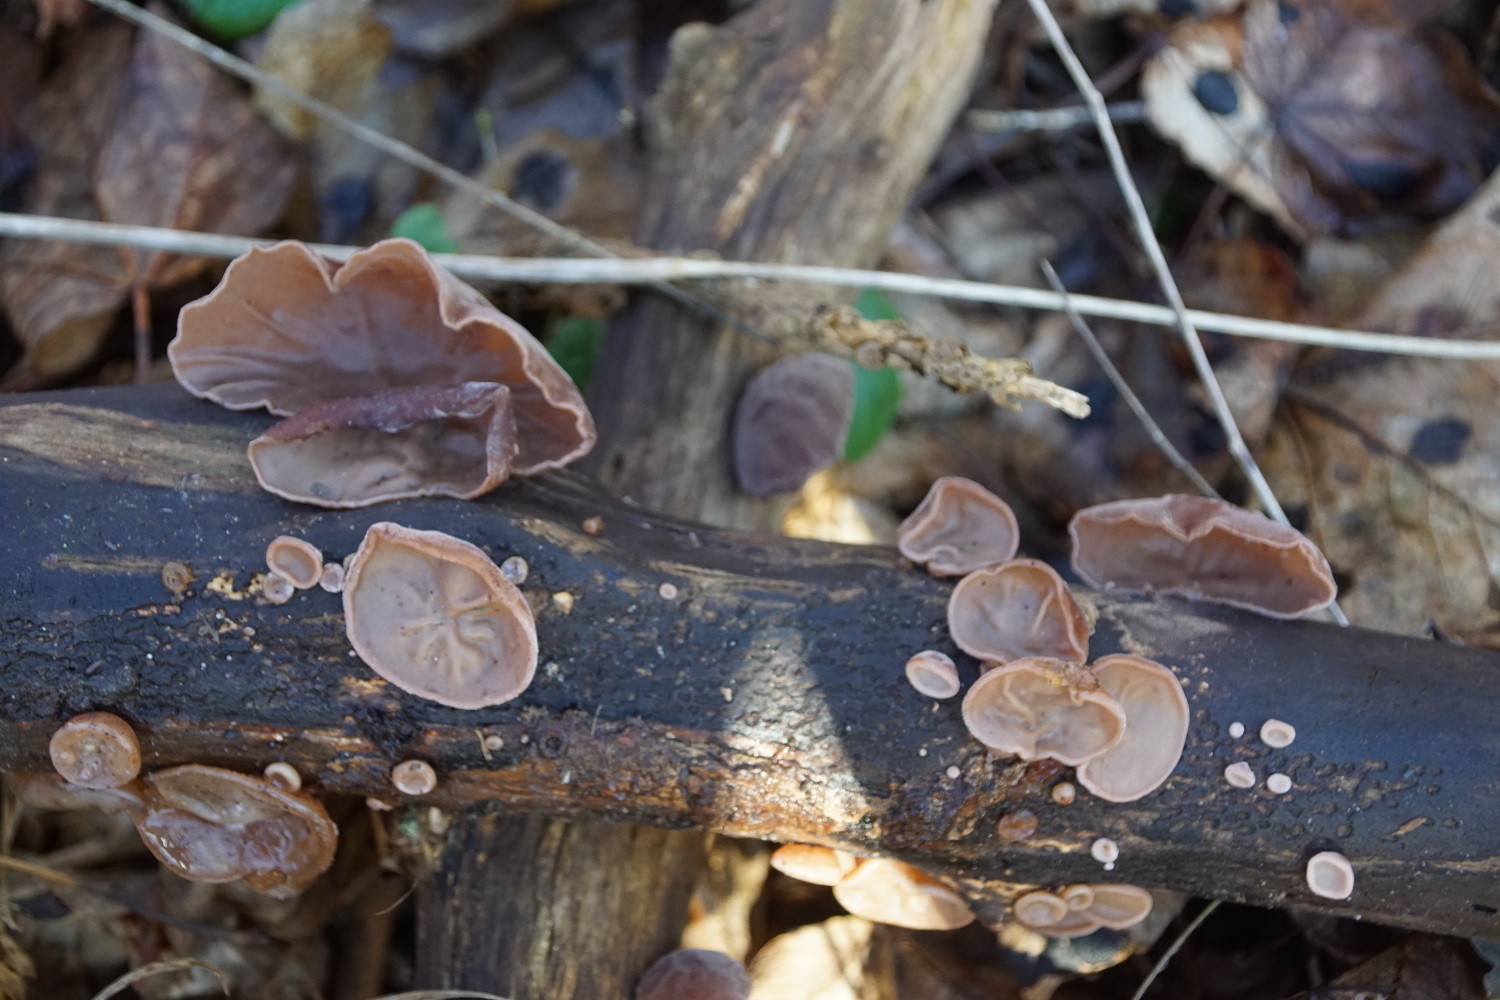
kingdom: Fungi
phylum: Basidiomycota
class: Agaricomycetes
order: Auriculariales
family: Auriculariaceae
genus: Auricularia
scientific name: Auricularia auricula-judae
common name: almindelig judasøre
